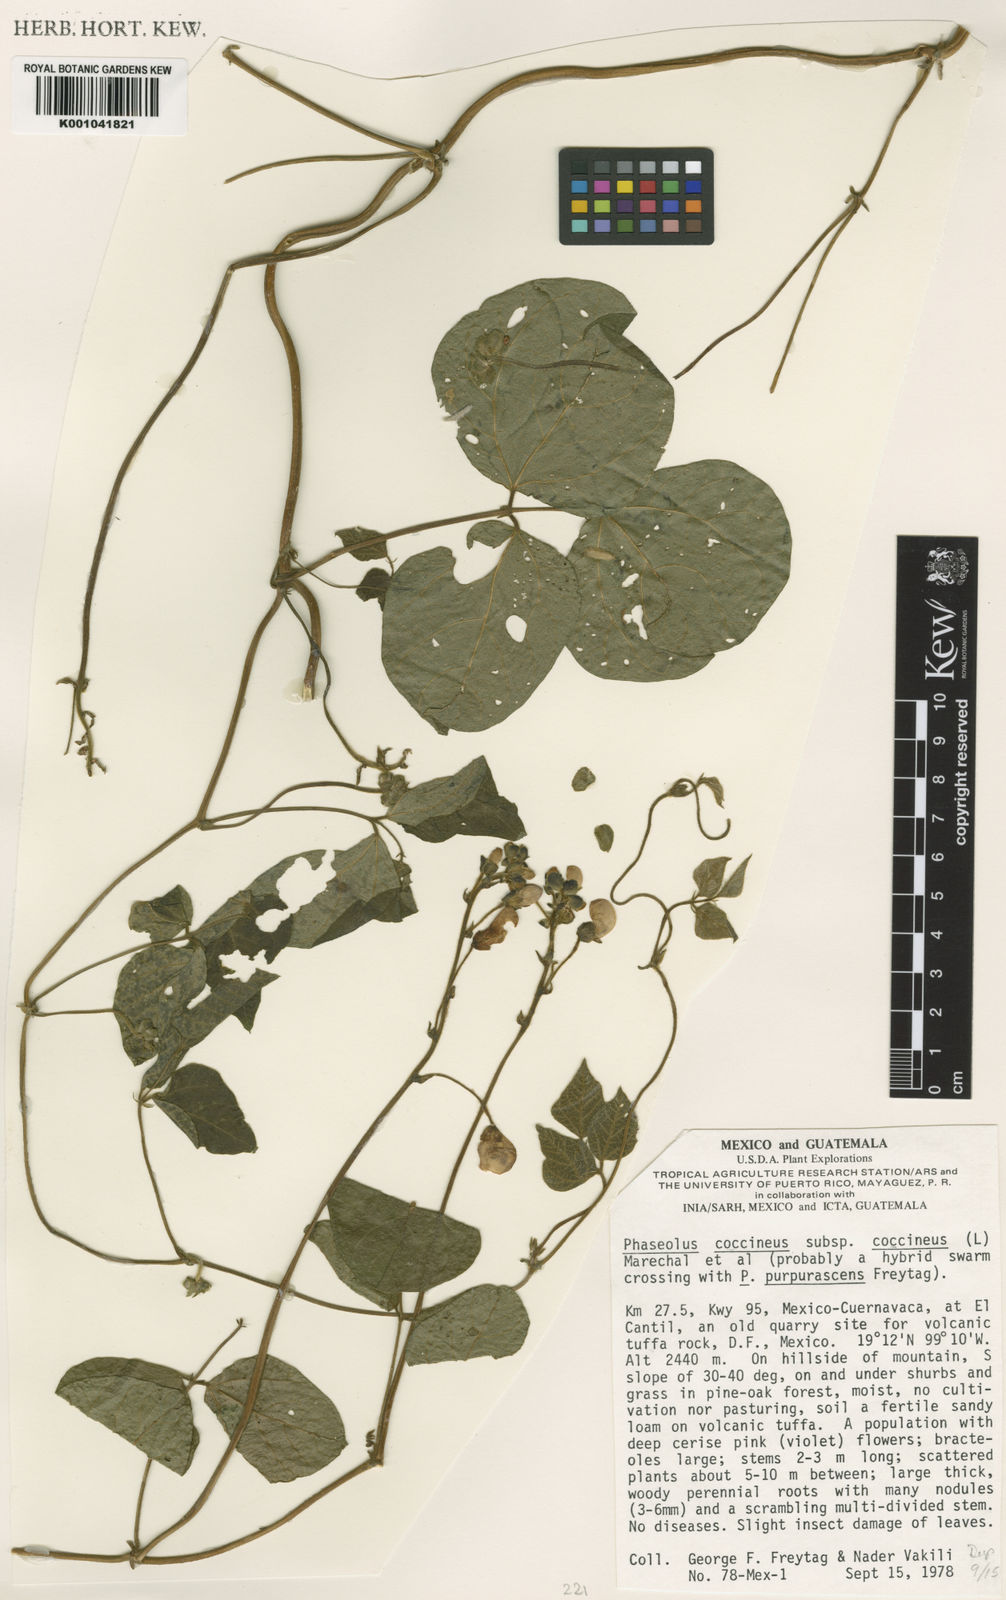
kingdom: Plantae
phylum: Tracheophyta
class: Magnoliopsida
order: Fabales
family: Fabaceae
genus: Phaseolus
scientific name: Phaseolus
